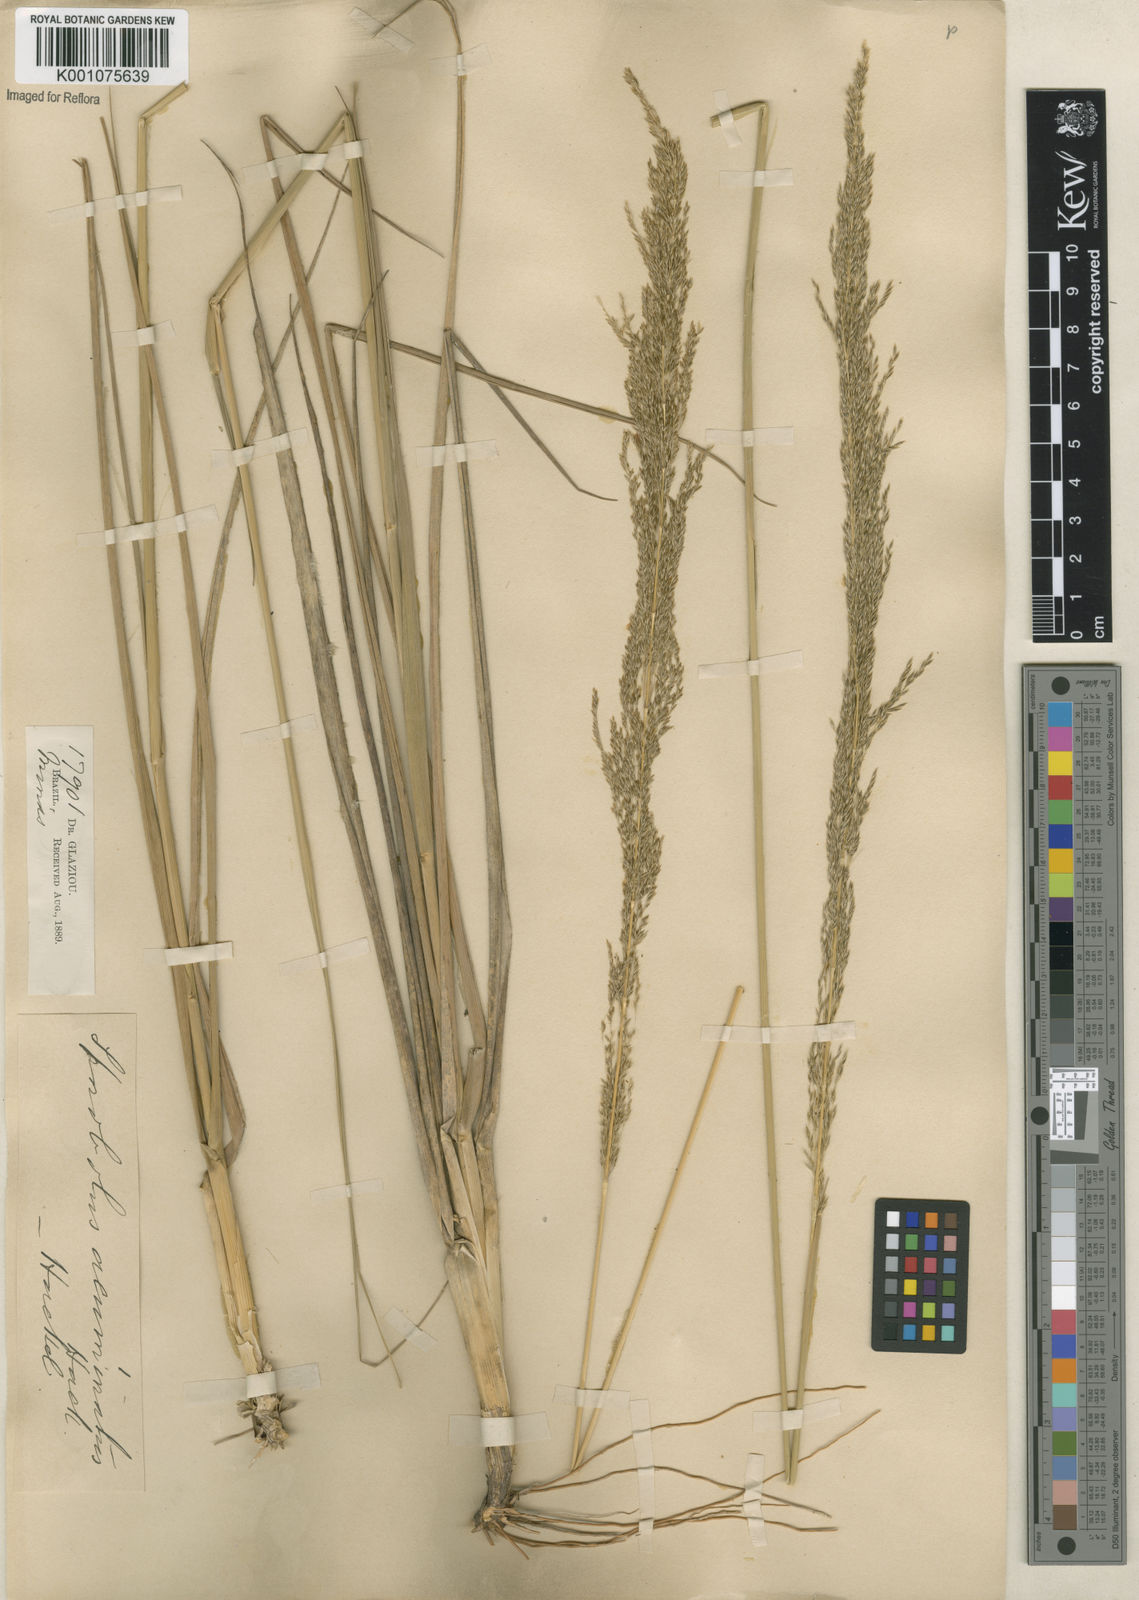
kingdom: Plantae
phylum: Tracheophyta
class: Liliopsida
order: Poales
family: Poaceae
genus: Sporobolus
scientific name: Sporobolus aeneus
